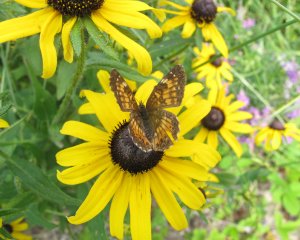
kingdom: Animalia
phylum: Arthropoda
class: Insecta
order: Lepidoptera
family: Nymphalidae
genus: Chlosyne
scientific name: Chlosyne harrisii
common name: Harris's Checkerspot
